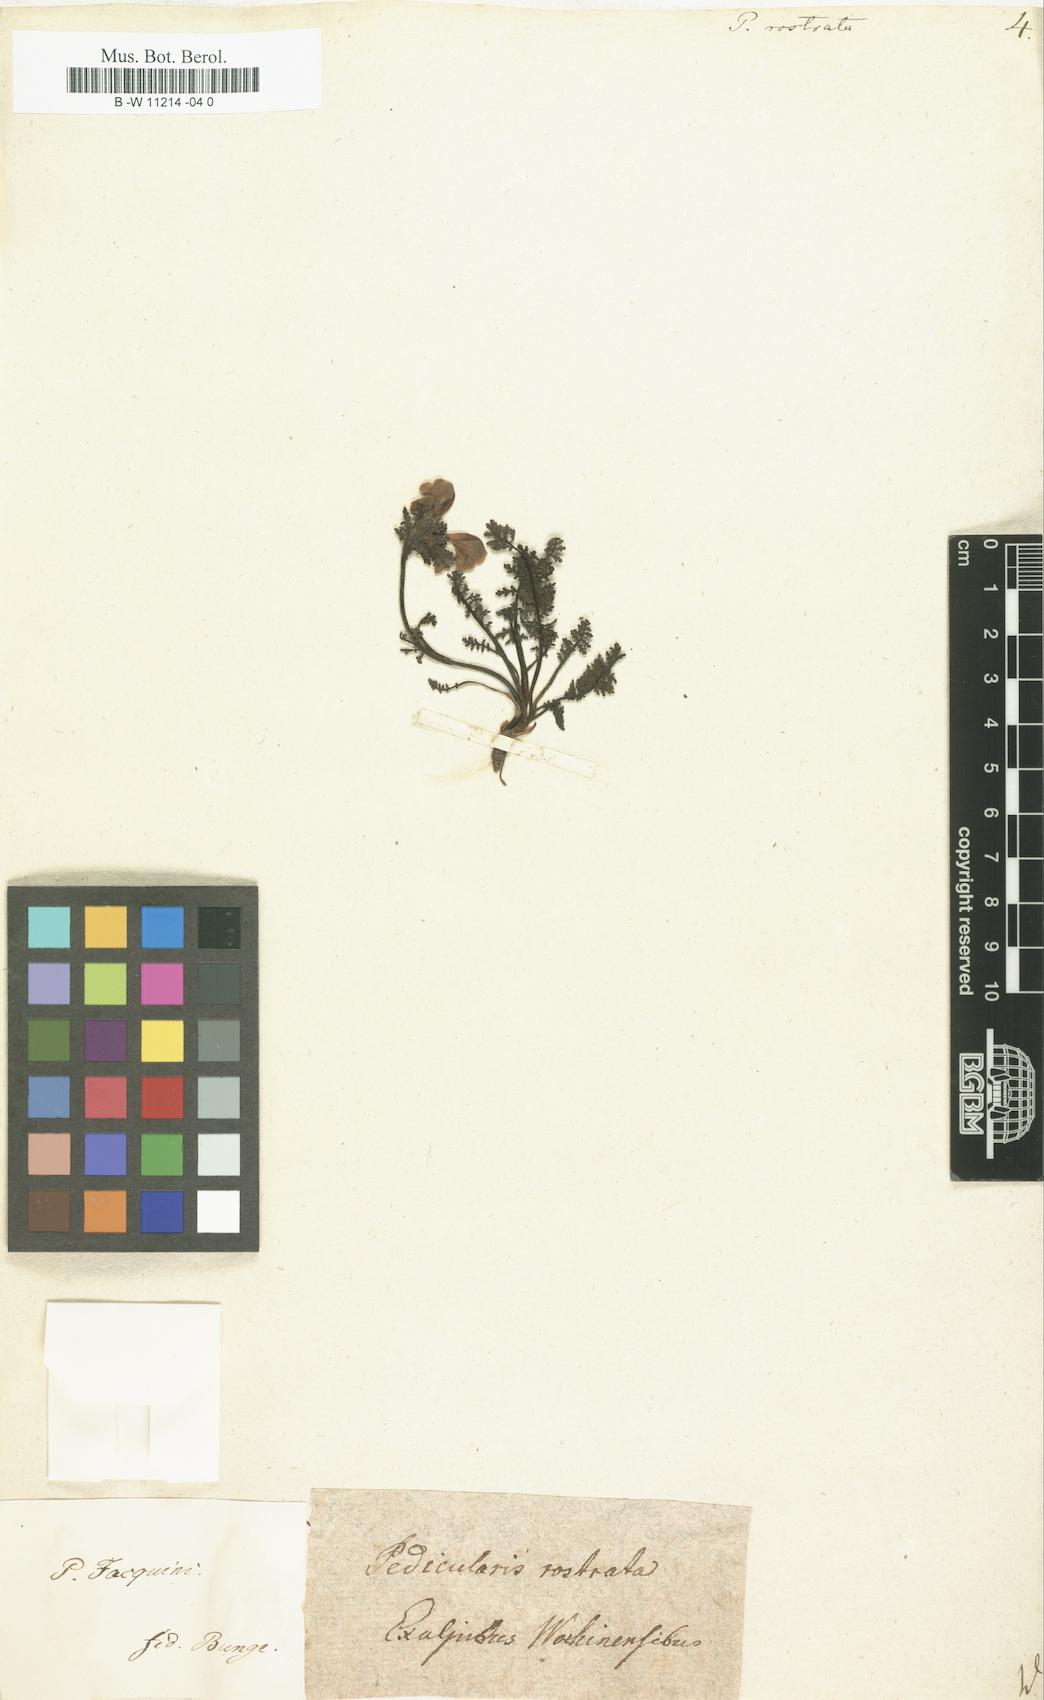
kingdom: Plantae
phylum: Tracheophyta
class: Magnoliopsida
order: Lamiales
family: Orobanchaceae
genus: Pedicularis
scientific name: Pedicularis
